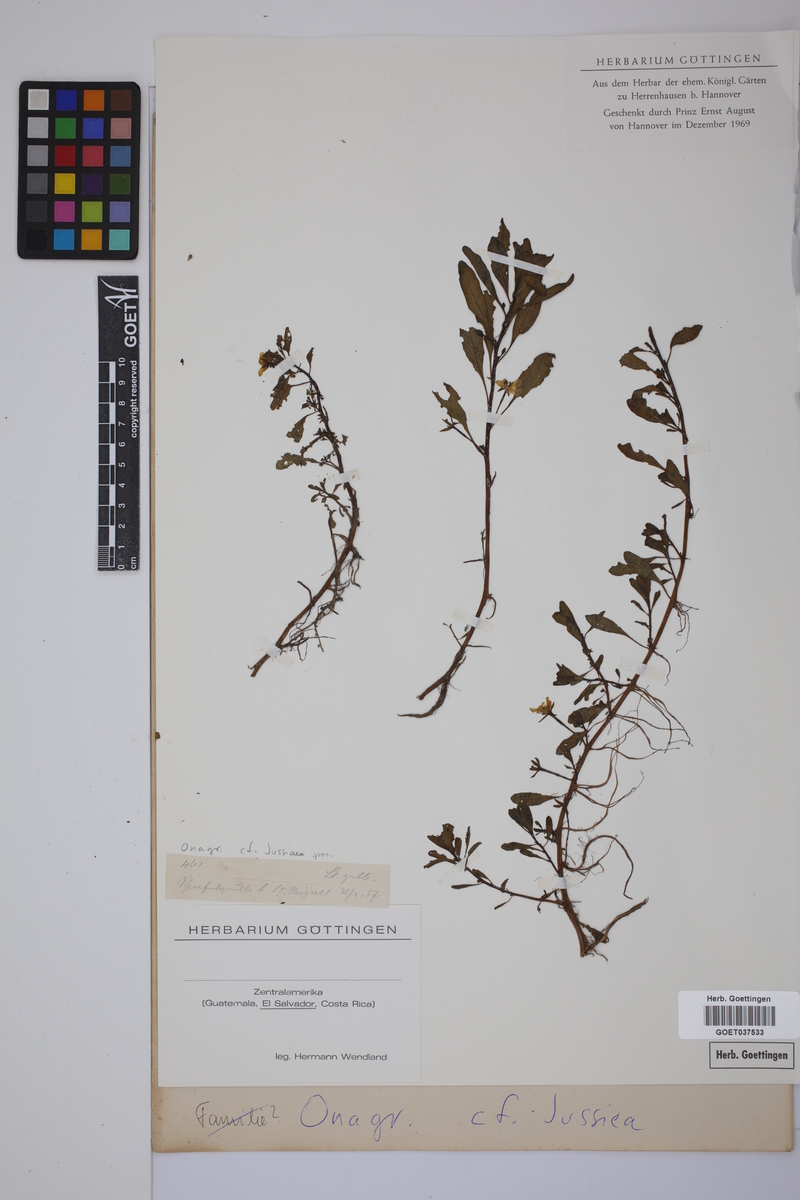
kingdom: Plantae
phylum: Tracheophyta
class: Magnoliopsida
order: Myrtales
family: Onagraceae
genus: Ludwigia
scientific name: Ludwigia
